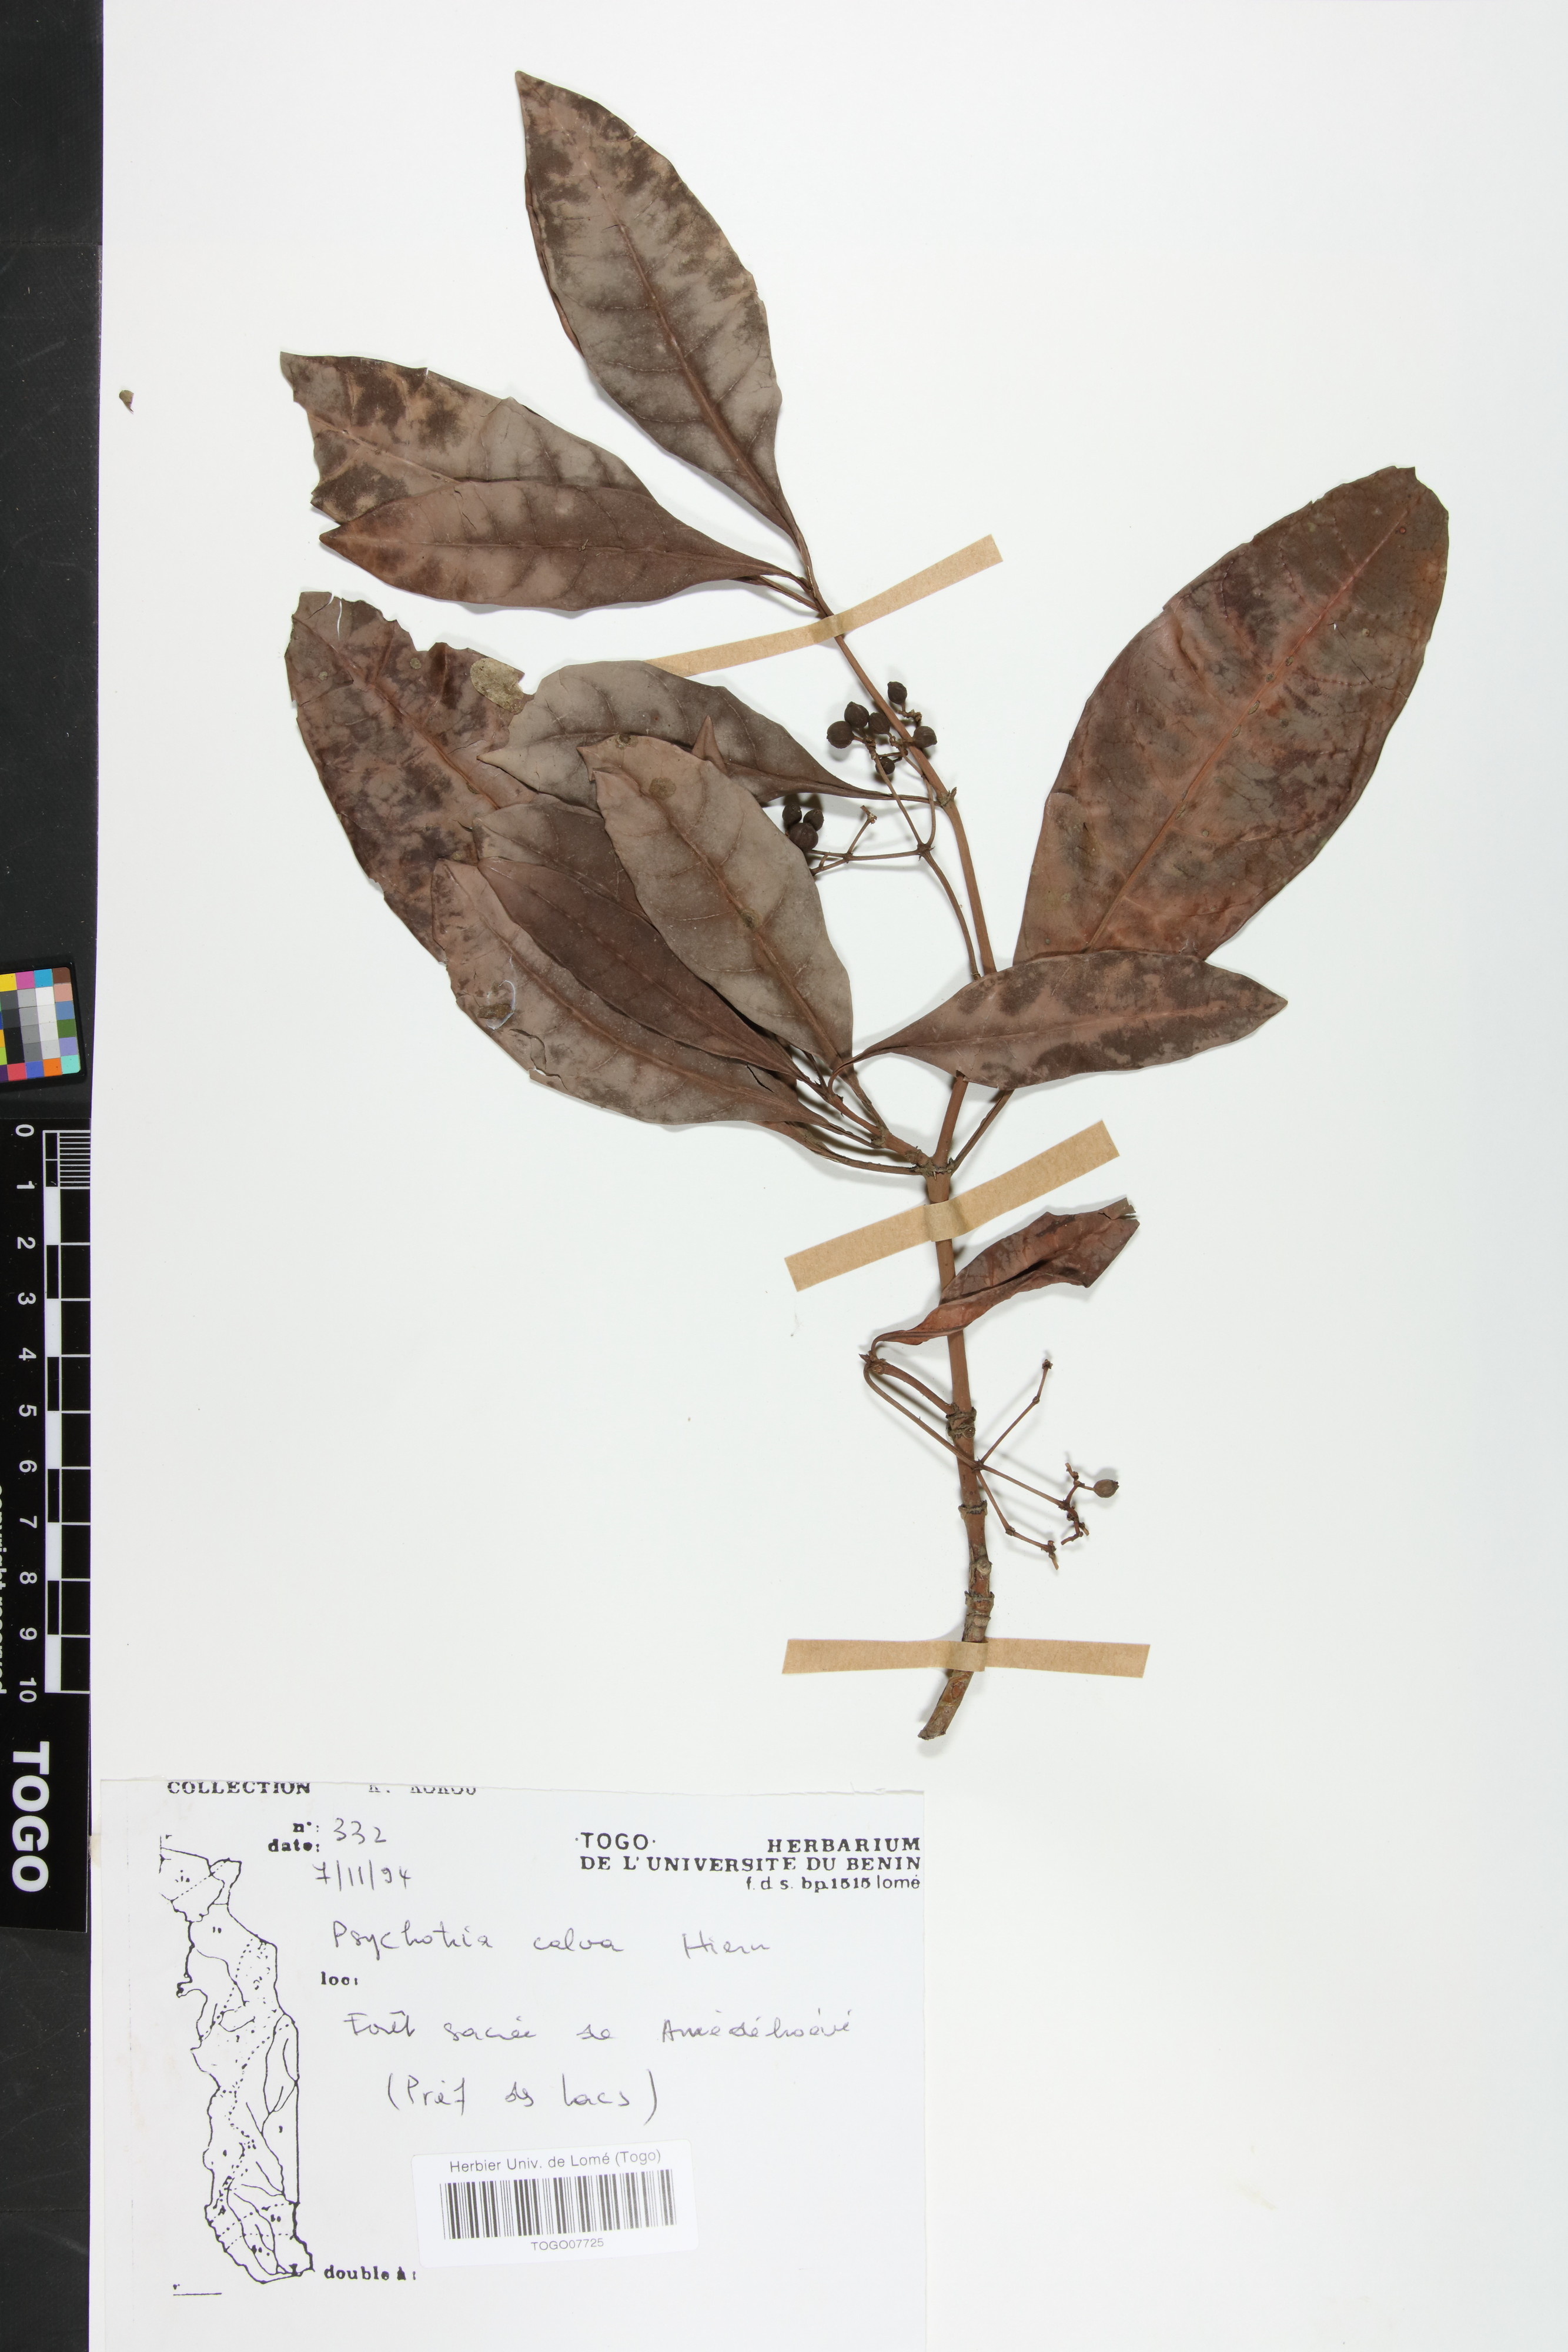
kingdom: Plantae
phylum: Tracheophyta
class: Magnoliopsida
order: Gentianales
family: Rubiaceae
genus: Psychotria
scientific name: Psychotria calva
